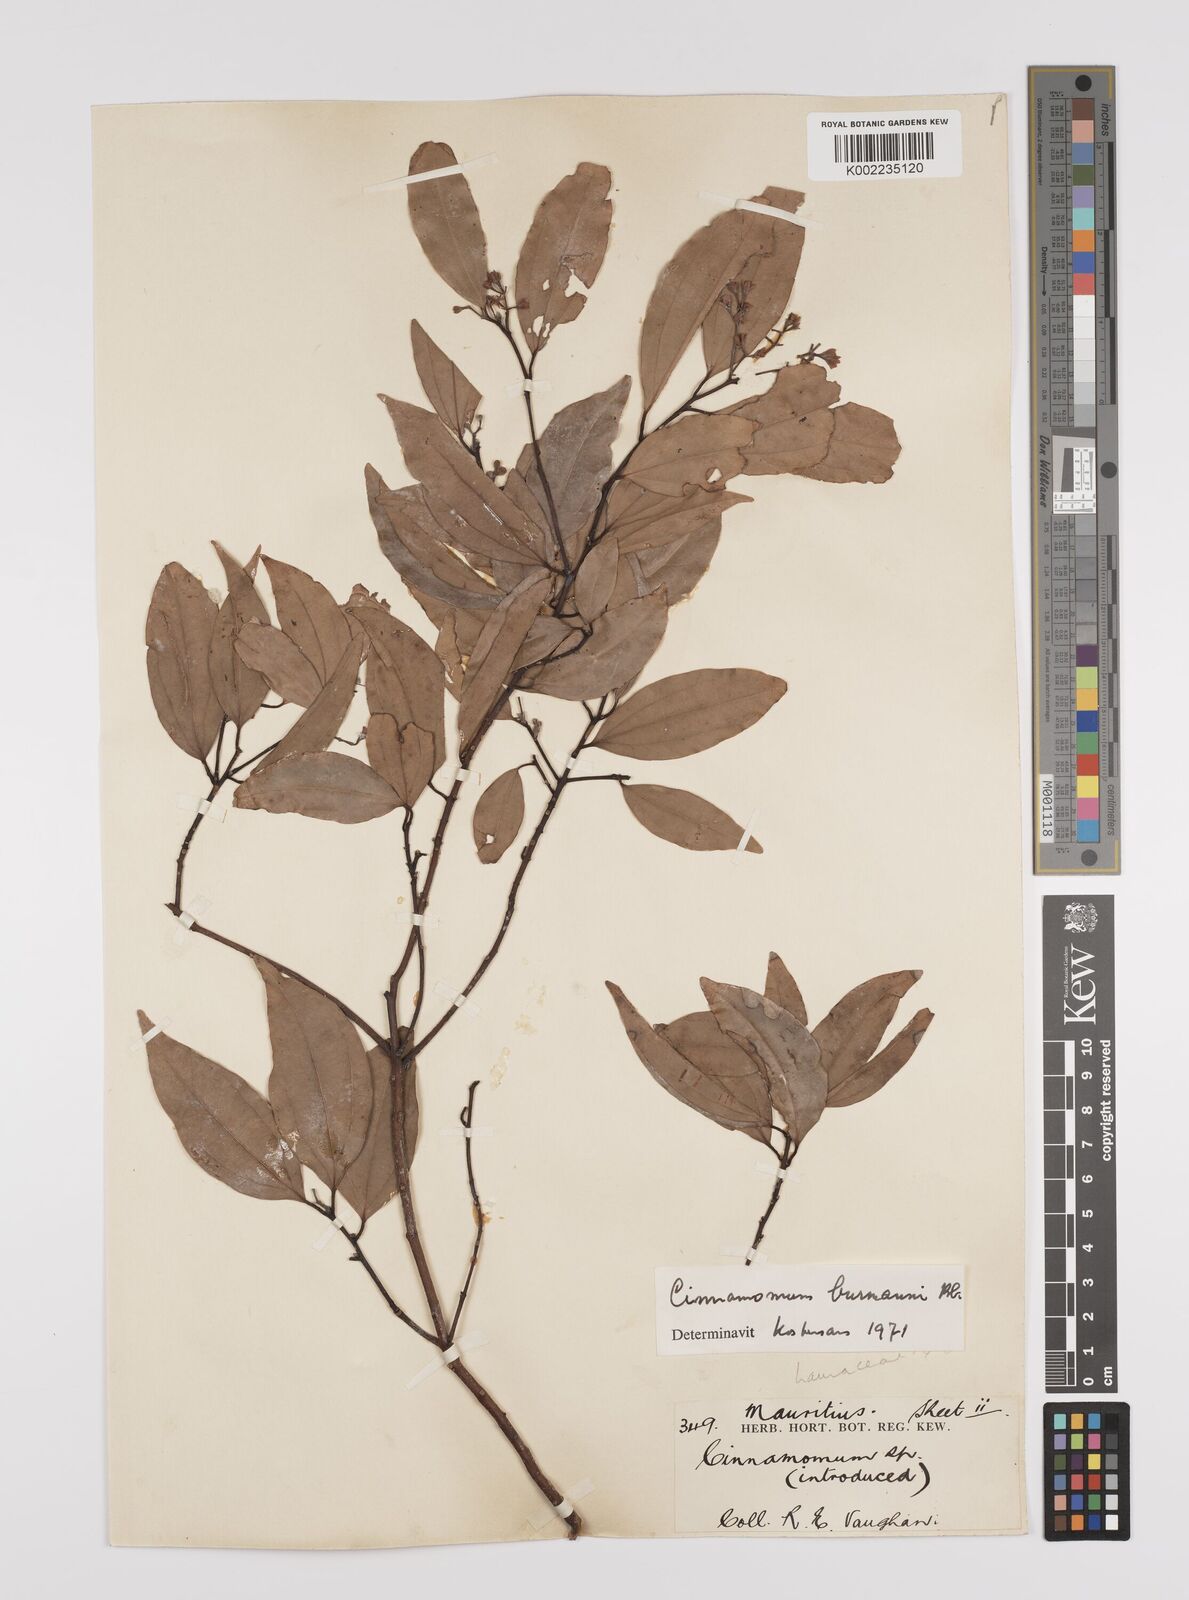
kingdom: Plantae
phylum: Tracheophyta
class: Magnoliopsida
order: Laurales
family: Lauraceae
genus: Cinnamomum
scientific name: Cinnamomum burmanni
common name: Padang cassia
